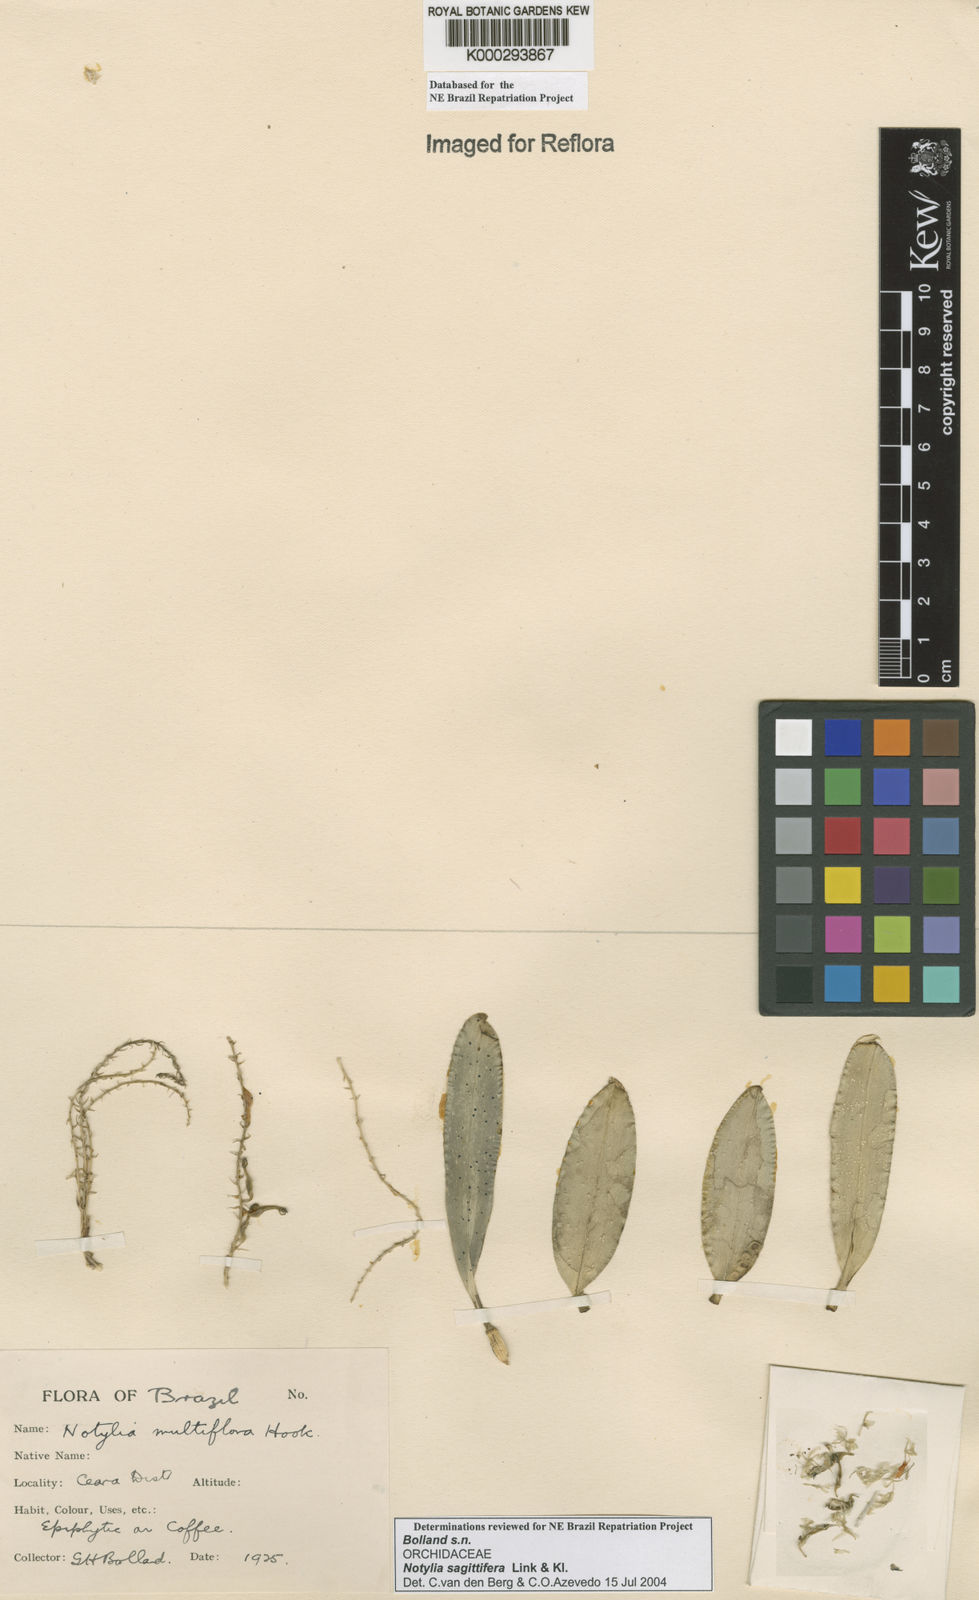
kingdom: Plantae
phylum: Tracheophyta
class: Liliopsida
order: Asparagales
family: Orchidaceae
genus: Notylia
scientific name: Notylia
